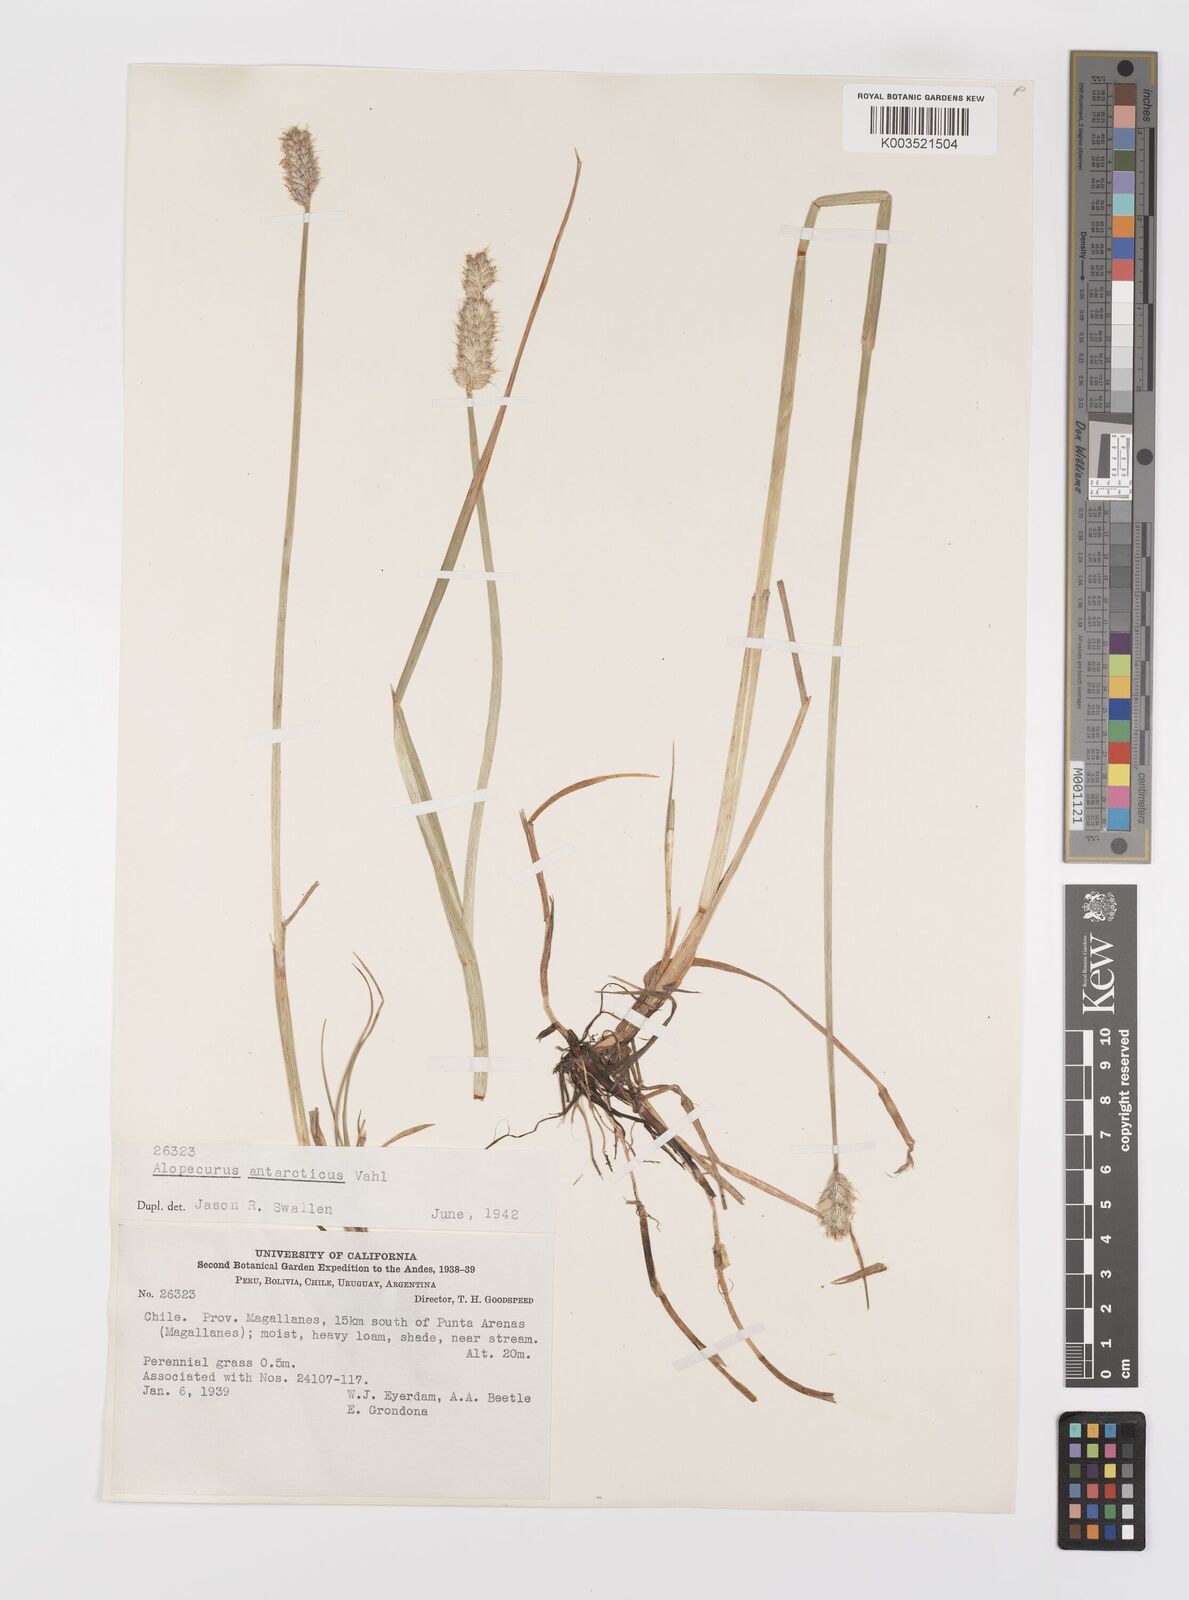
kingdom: Plantae
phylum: Tracheophyta
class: Liliopsida
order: Poales
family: Poaceae
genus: Alopecurus
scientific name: Alopecurus magellanicus
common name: Alpine foxtail
